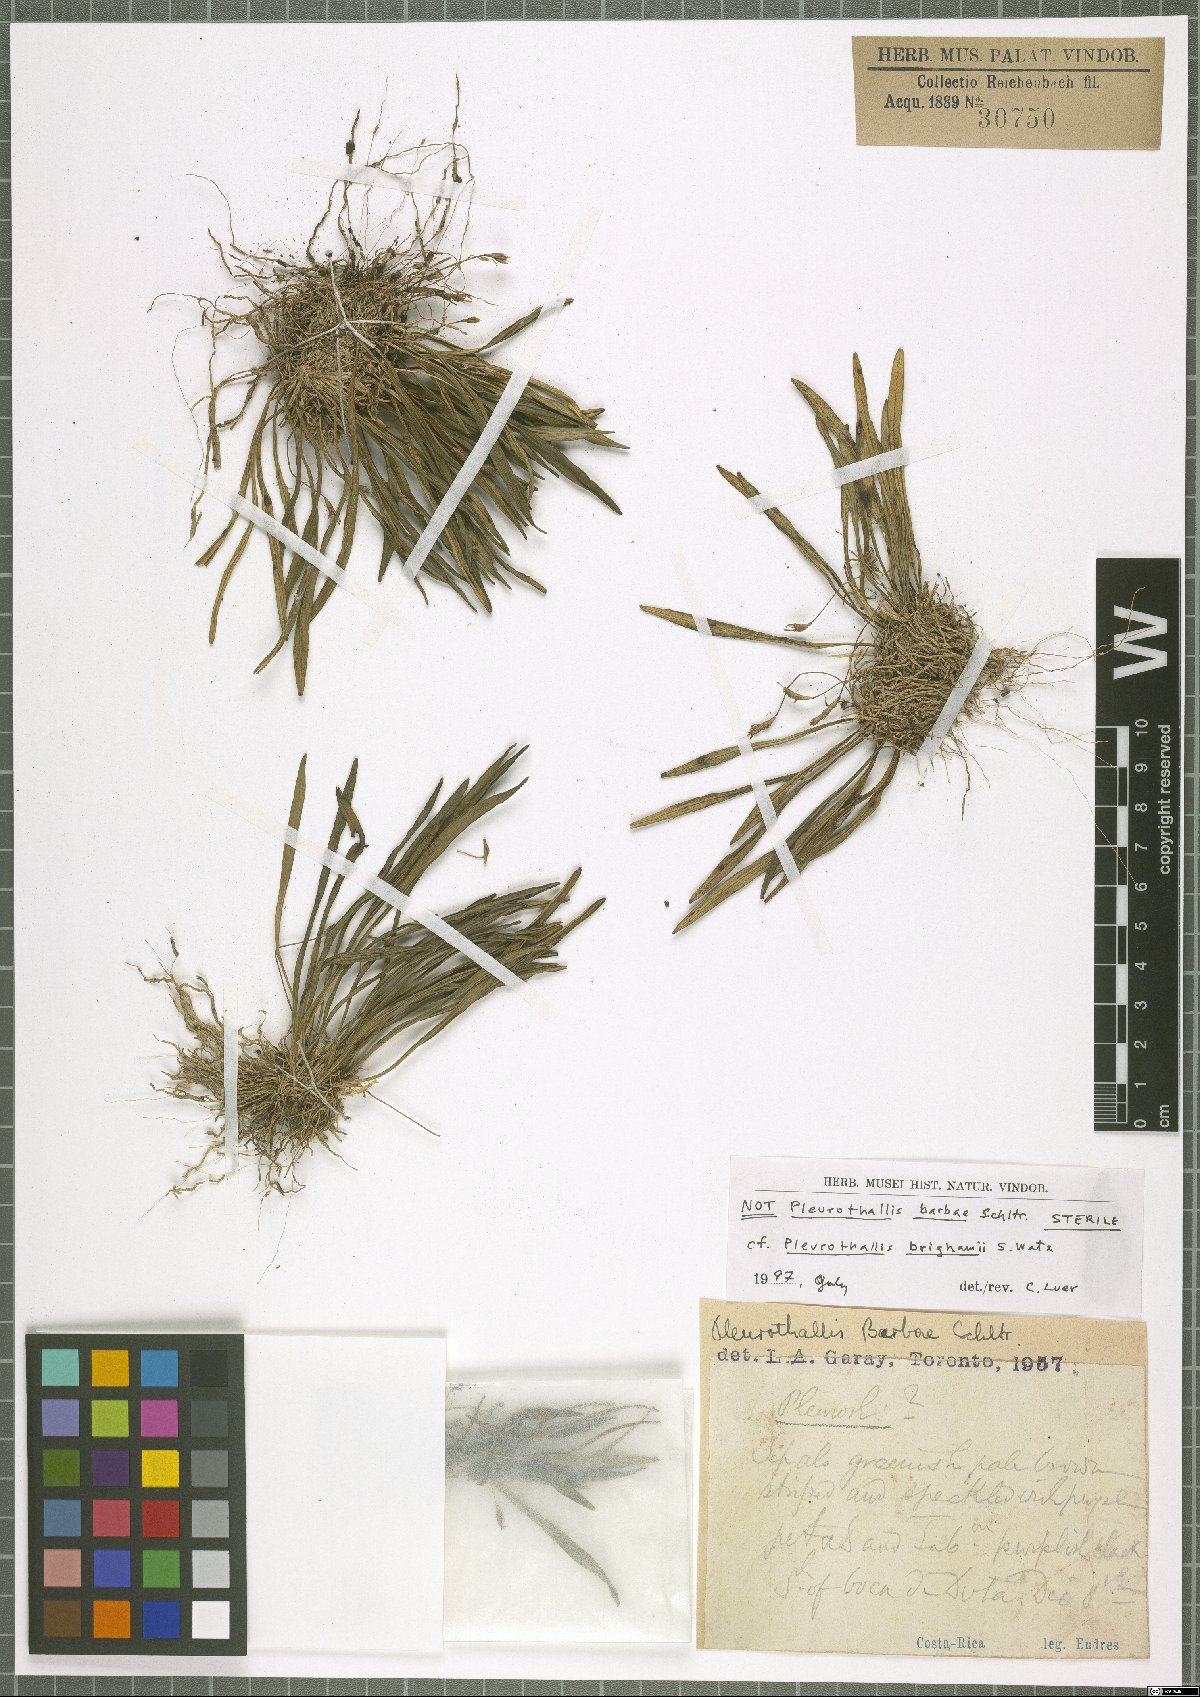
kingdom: Plantae
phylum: Tracheophyta
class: Liliopsida
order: Asparagales
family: Orchidaceae
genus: Specklinia
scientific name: Specklinia brighamii
